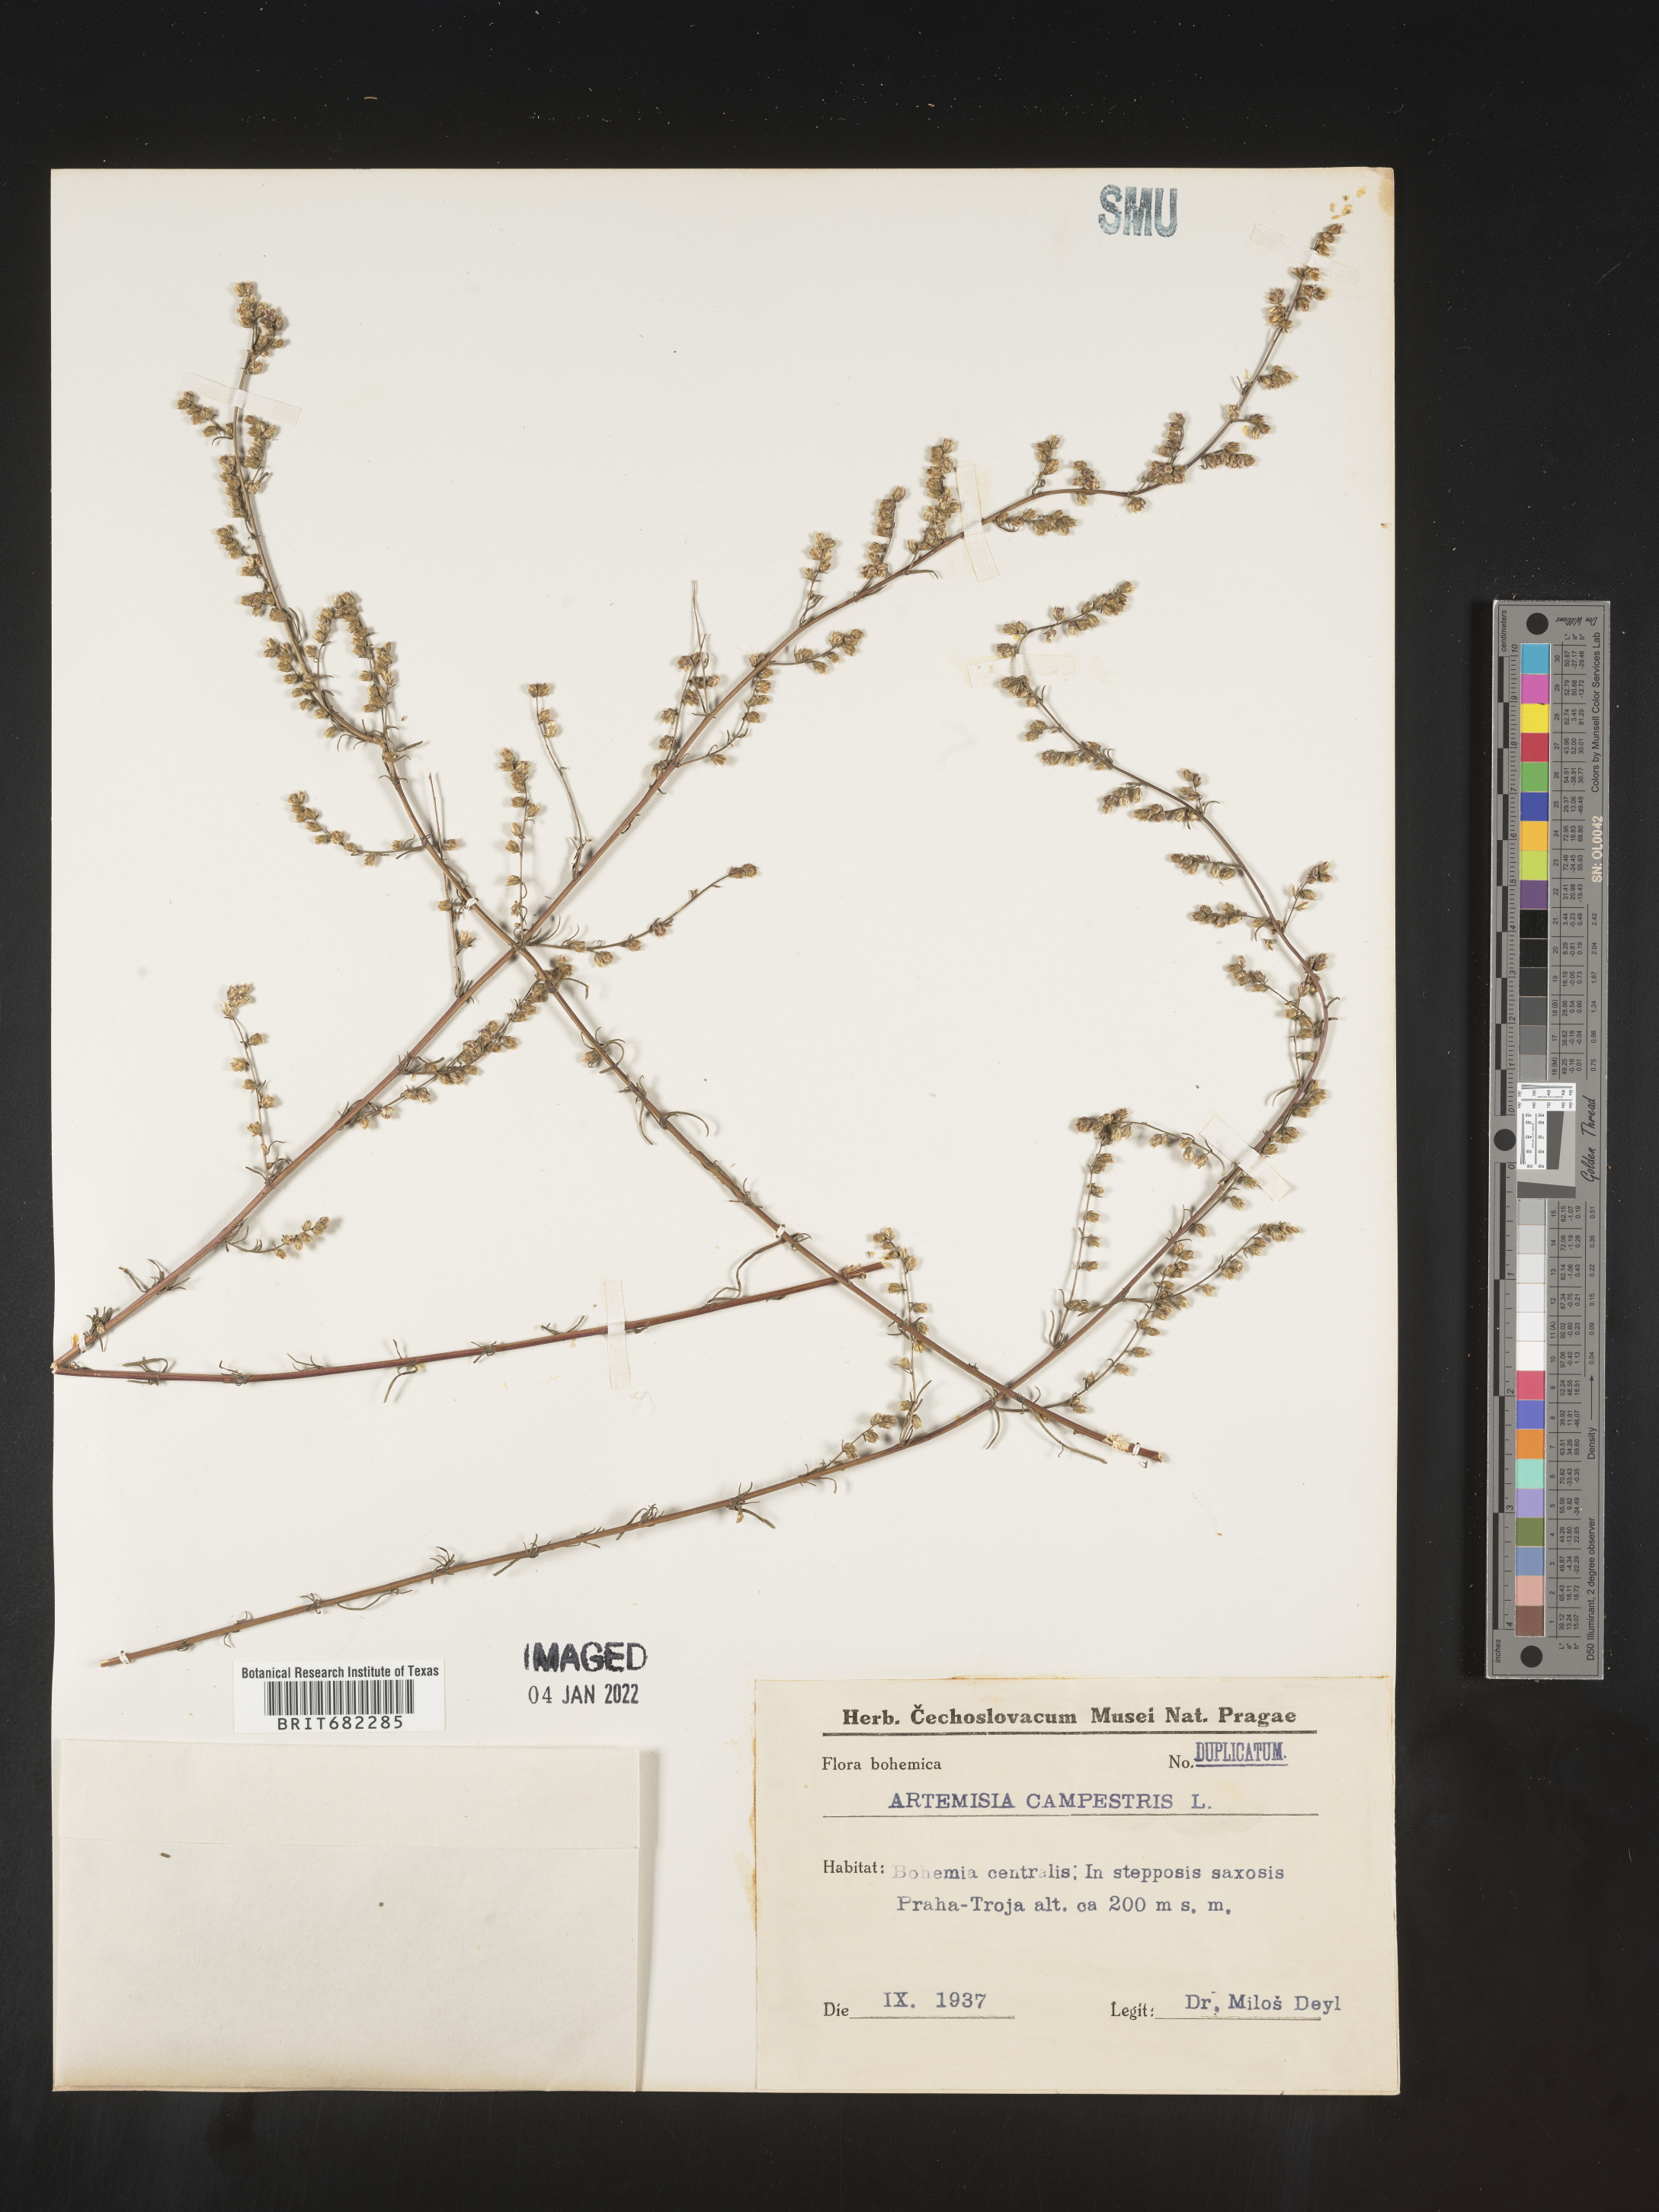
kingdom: Plantae
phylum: Tracheophyta
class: Magnoliopsida
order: Asterales
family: Asteraceae
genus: Artemisia
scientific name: Artemisia campestris
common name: Field wormwood
